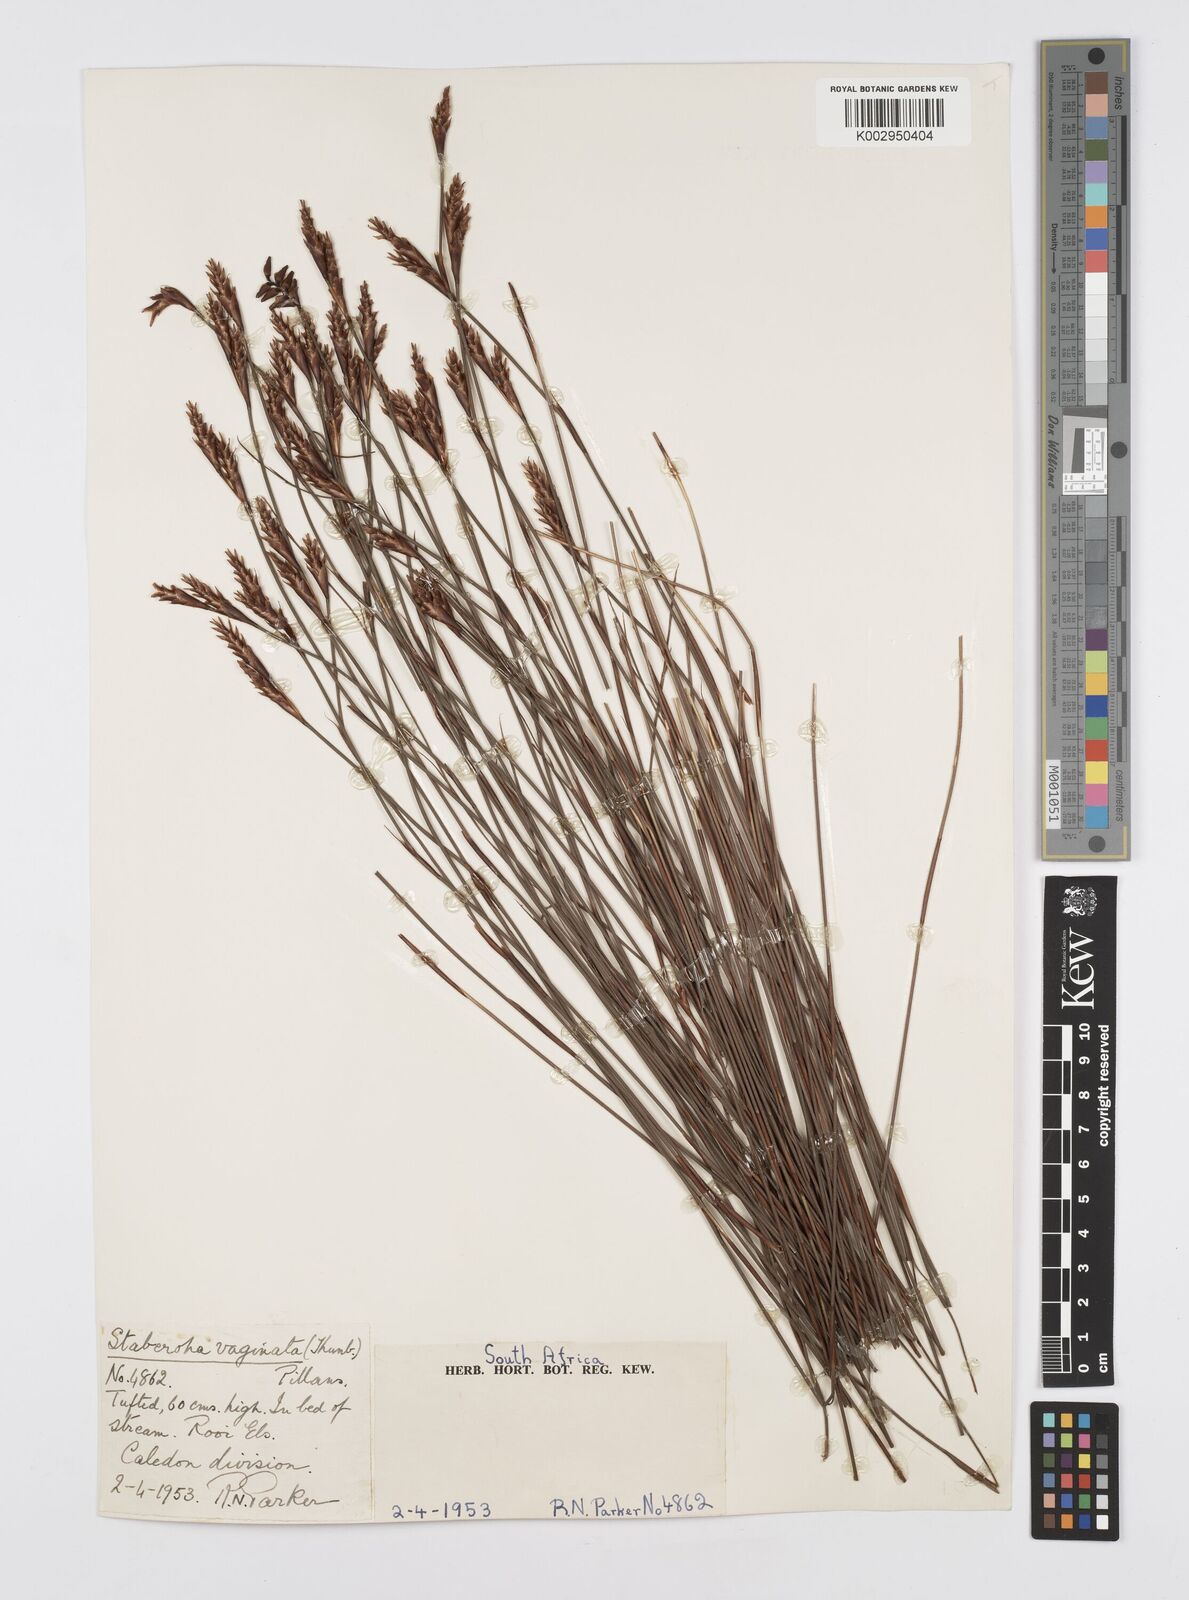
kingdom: Plantae
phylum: Tracheophyta
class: Liliopsida
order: Poales
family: Restionaceae
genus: Staberoha
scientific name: Staberoha vaginata
